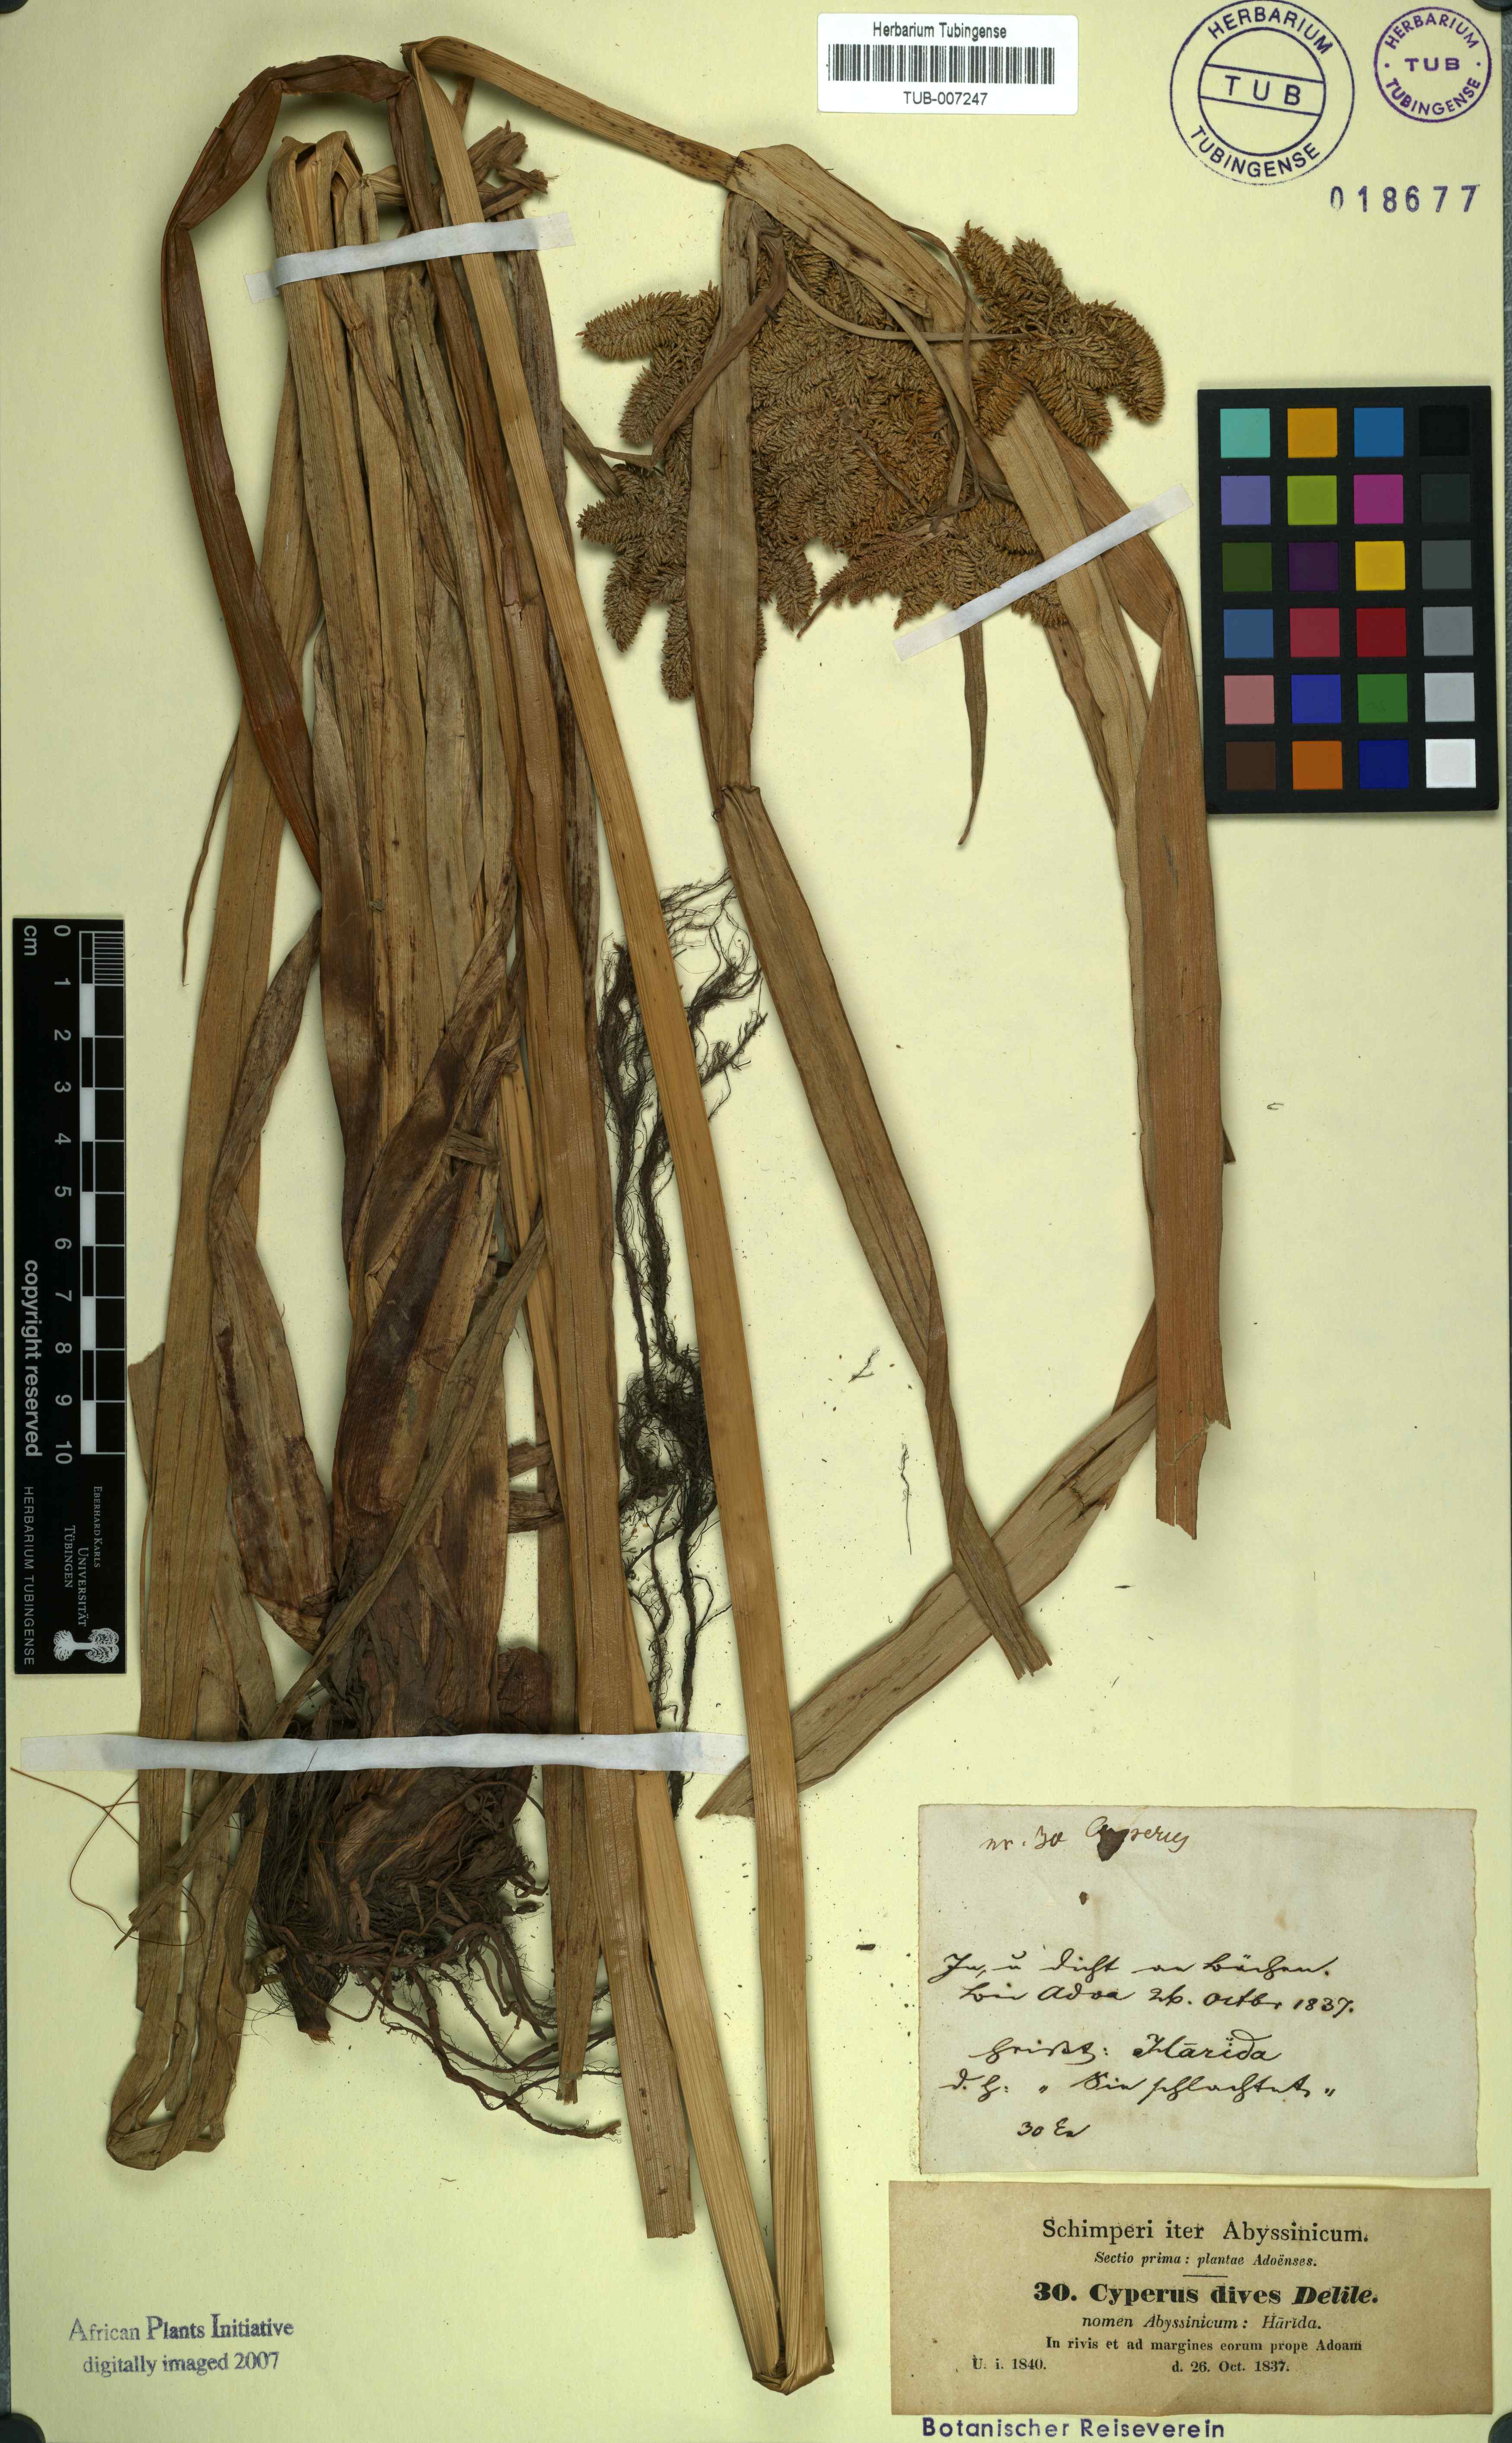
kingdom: Plantae
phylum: Tracheophyta
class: Liliopsida
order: Poales
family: Cyperaceae
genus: Cyperus
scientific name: Cyperus dives
